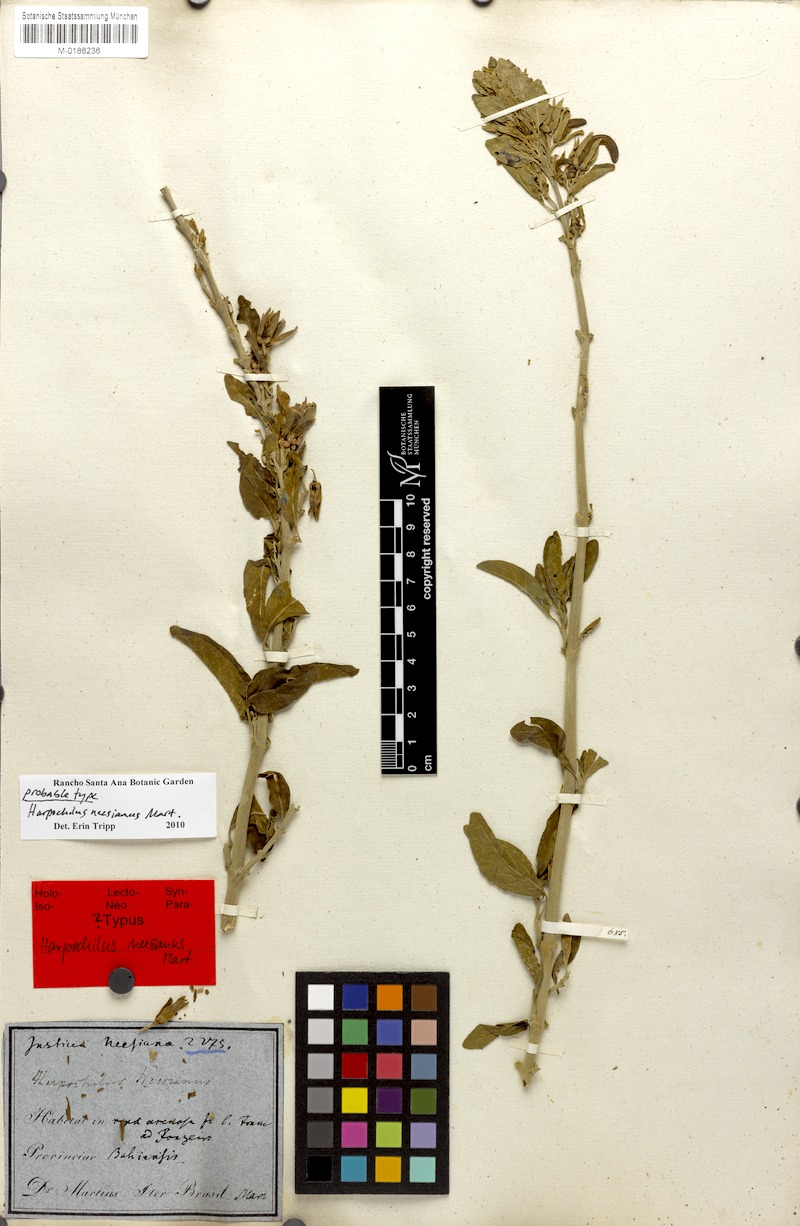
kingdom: Plantae
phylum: Tracheophyta
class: Magnoliopsida
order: Lamiales
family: Acanthaceae
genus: Harpochilus
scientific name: Harpochilus neesianus
